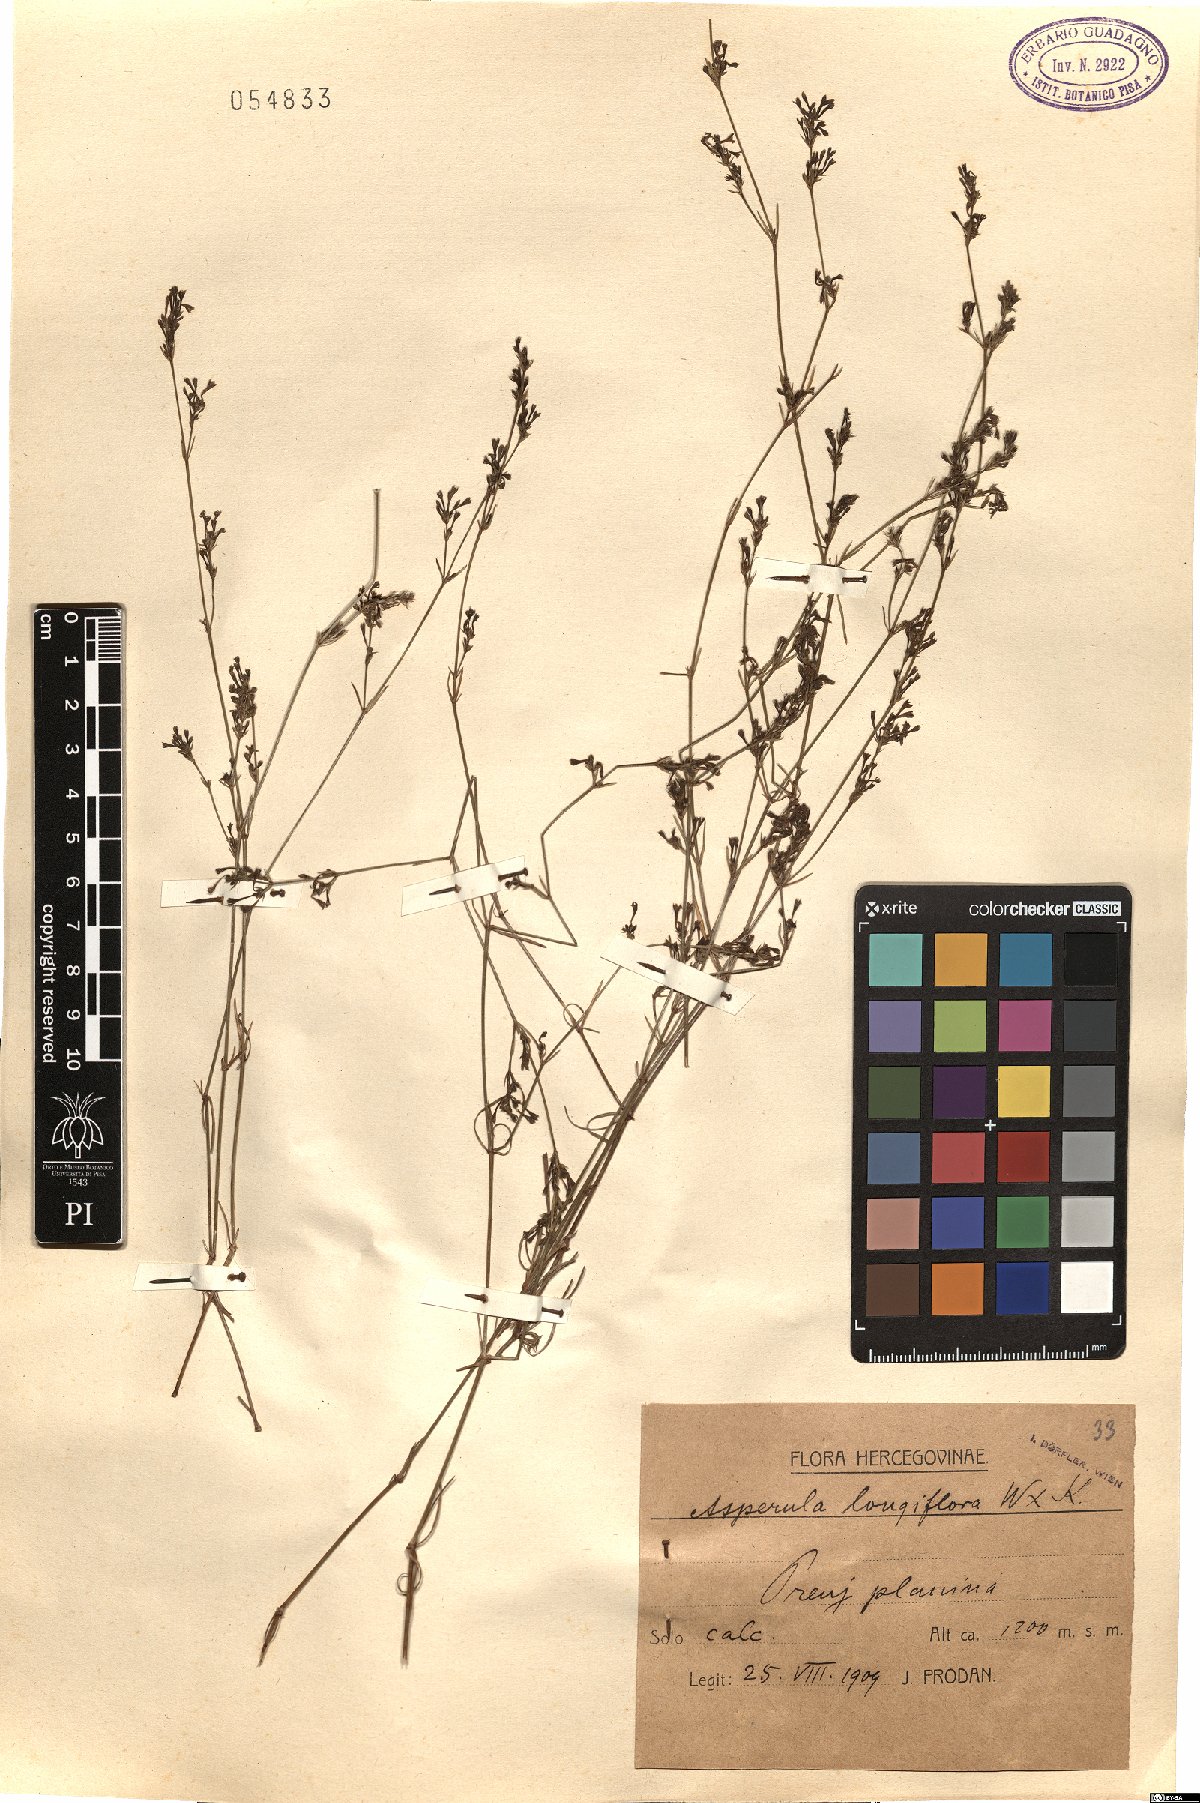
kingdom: Plantae
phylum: Tracheophyta
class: Magnoliopsida
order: Gentianales
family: Rubiaceae
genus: Cynanchica
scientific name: Cynanchica aristata
